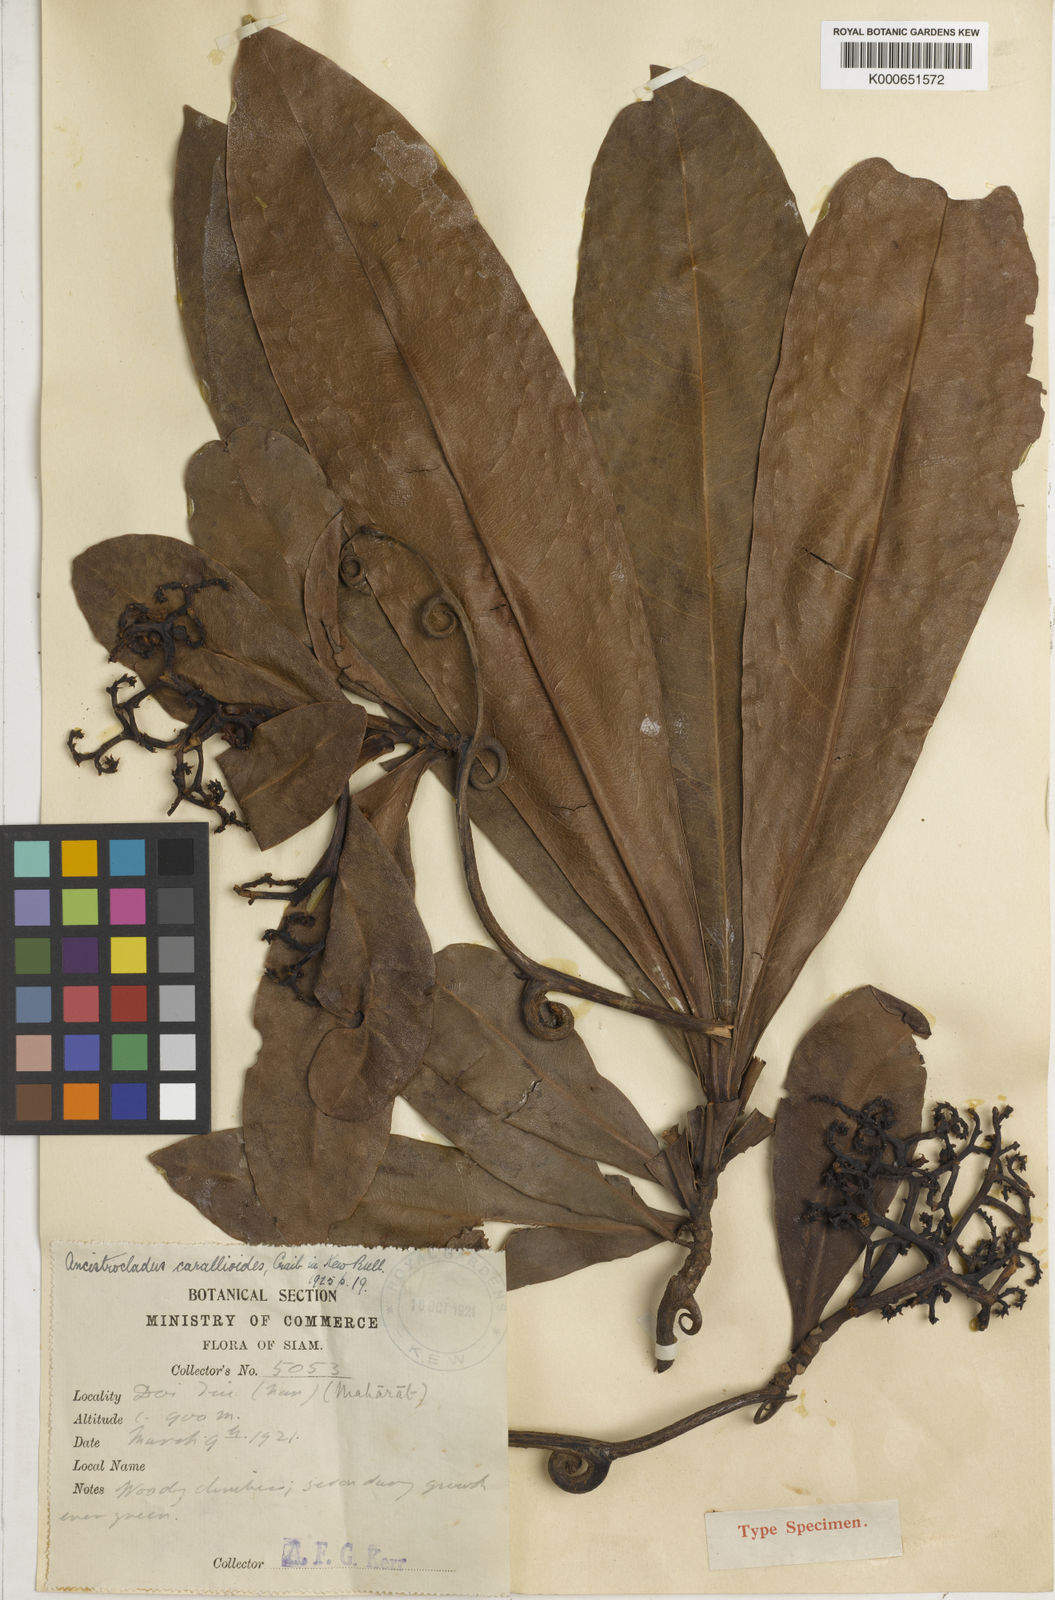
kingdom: Plantae
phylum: Tracheophyta
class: Magnoliopsida
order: Caryophyllales
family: Ancistrocladaceae
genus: Ancistrocladus
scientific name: Ancistrocladus tectorius
